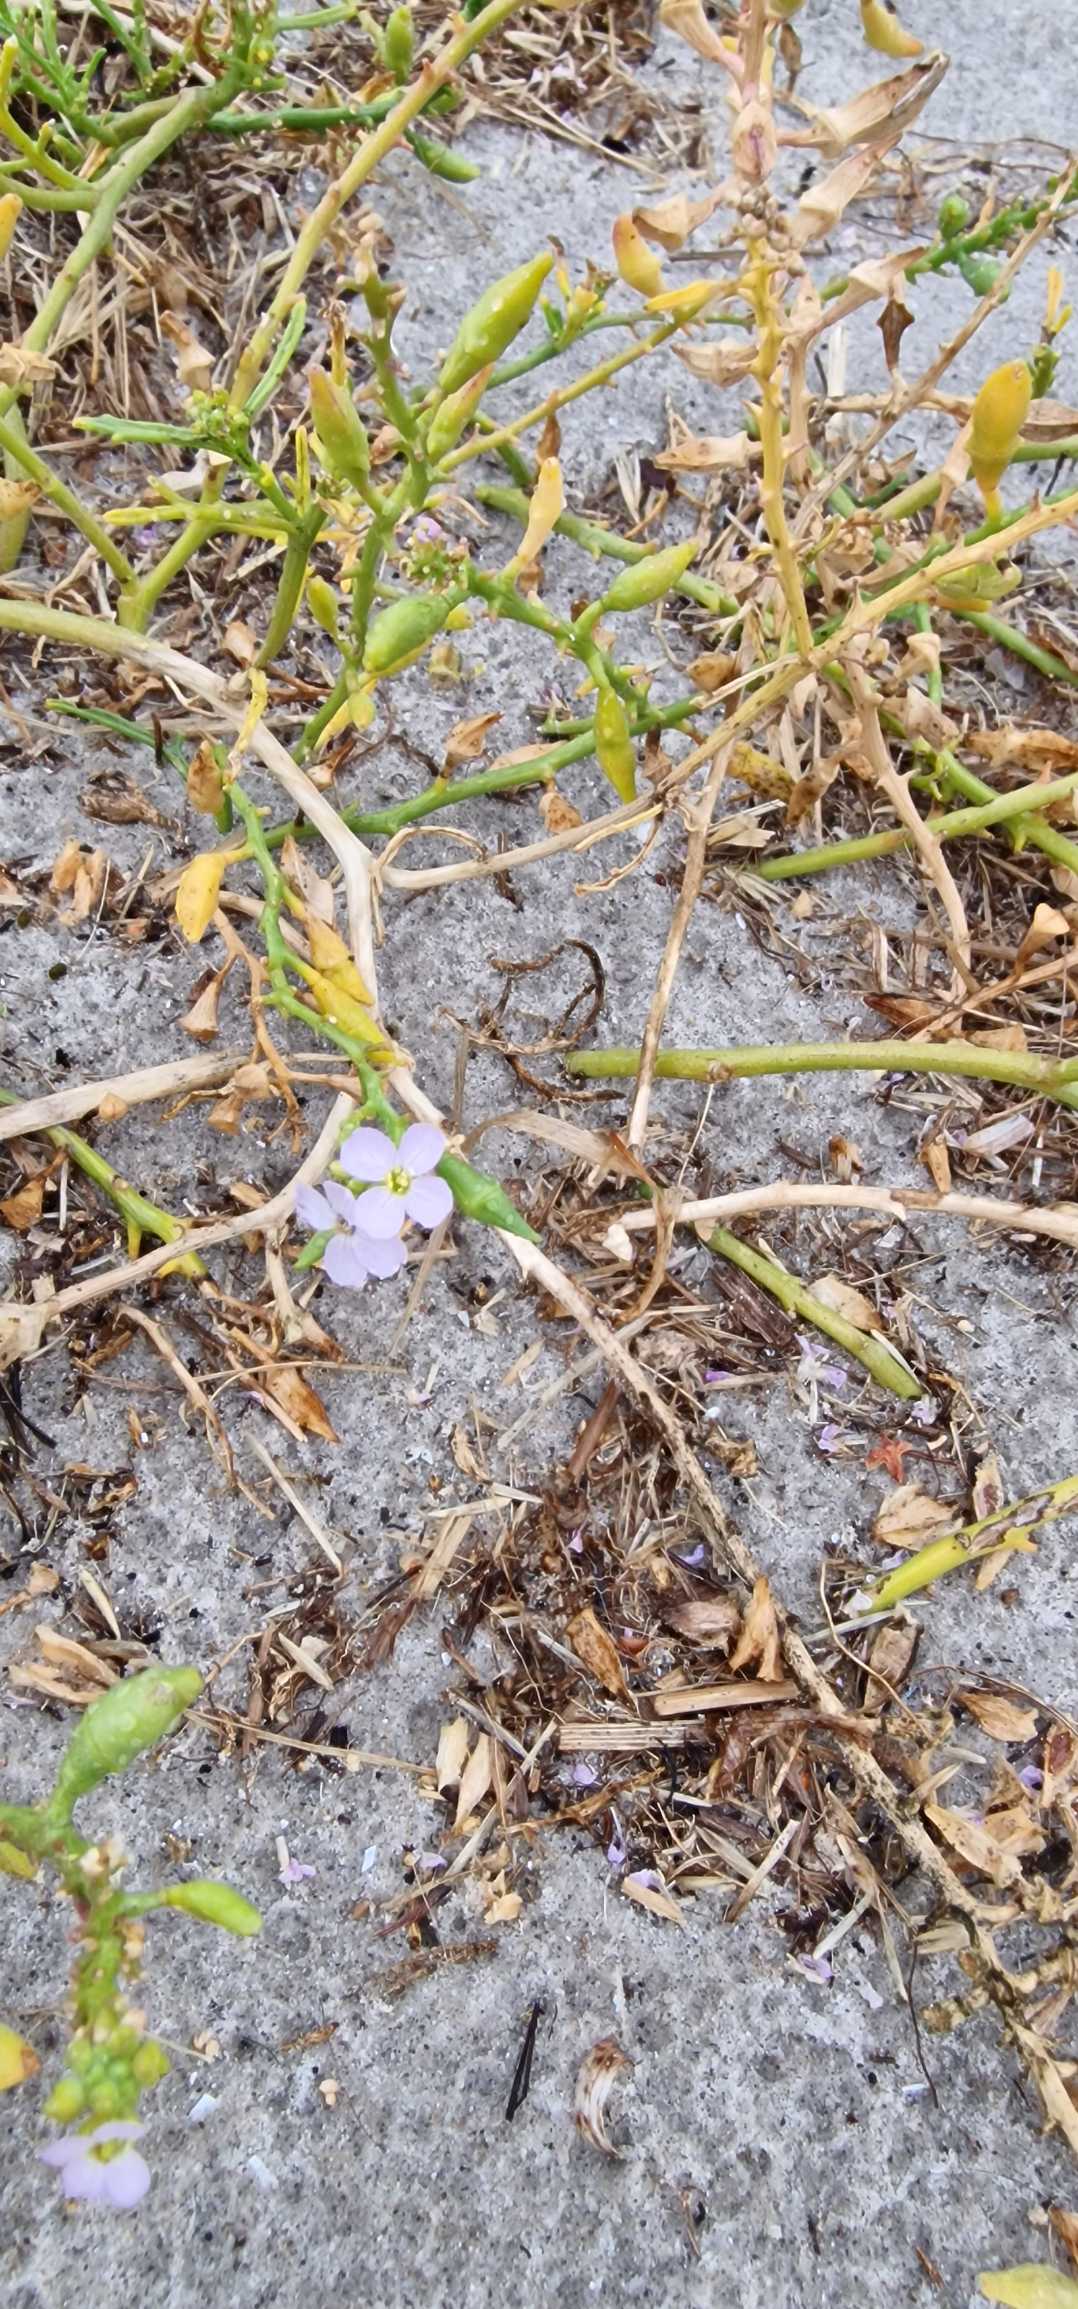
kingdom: Plantae
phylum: Tracheophyta
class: Magnoliopsida
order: Brassicales
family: Brassicaceae
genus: Cakile
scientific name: Cakile maritima
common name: Strandsennep
